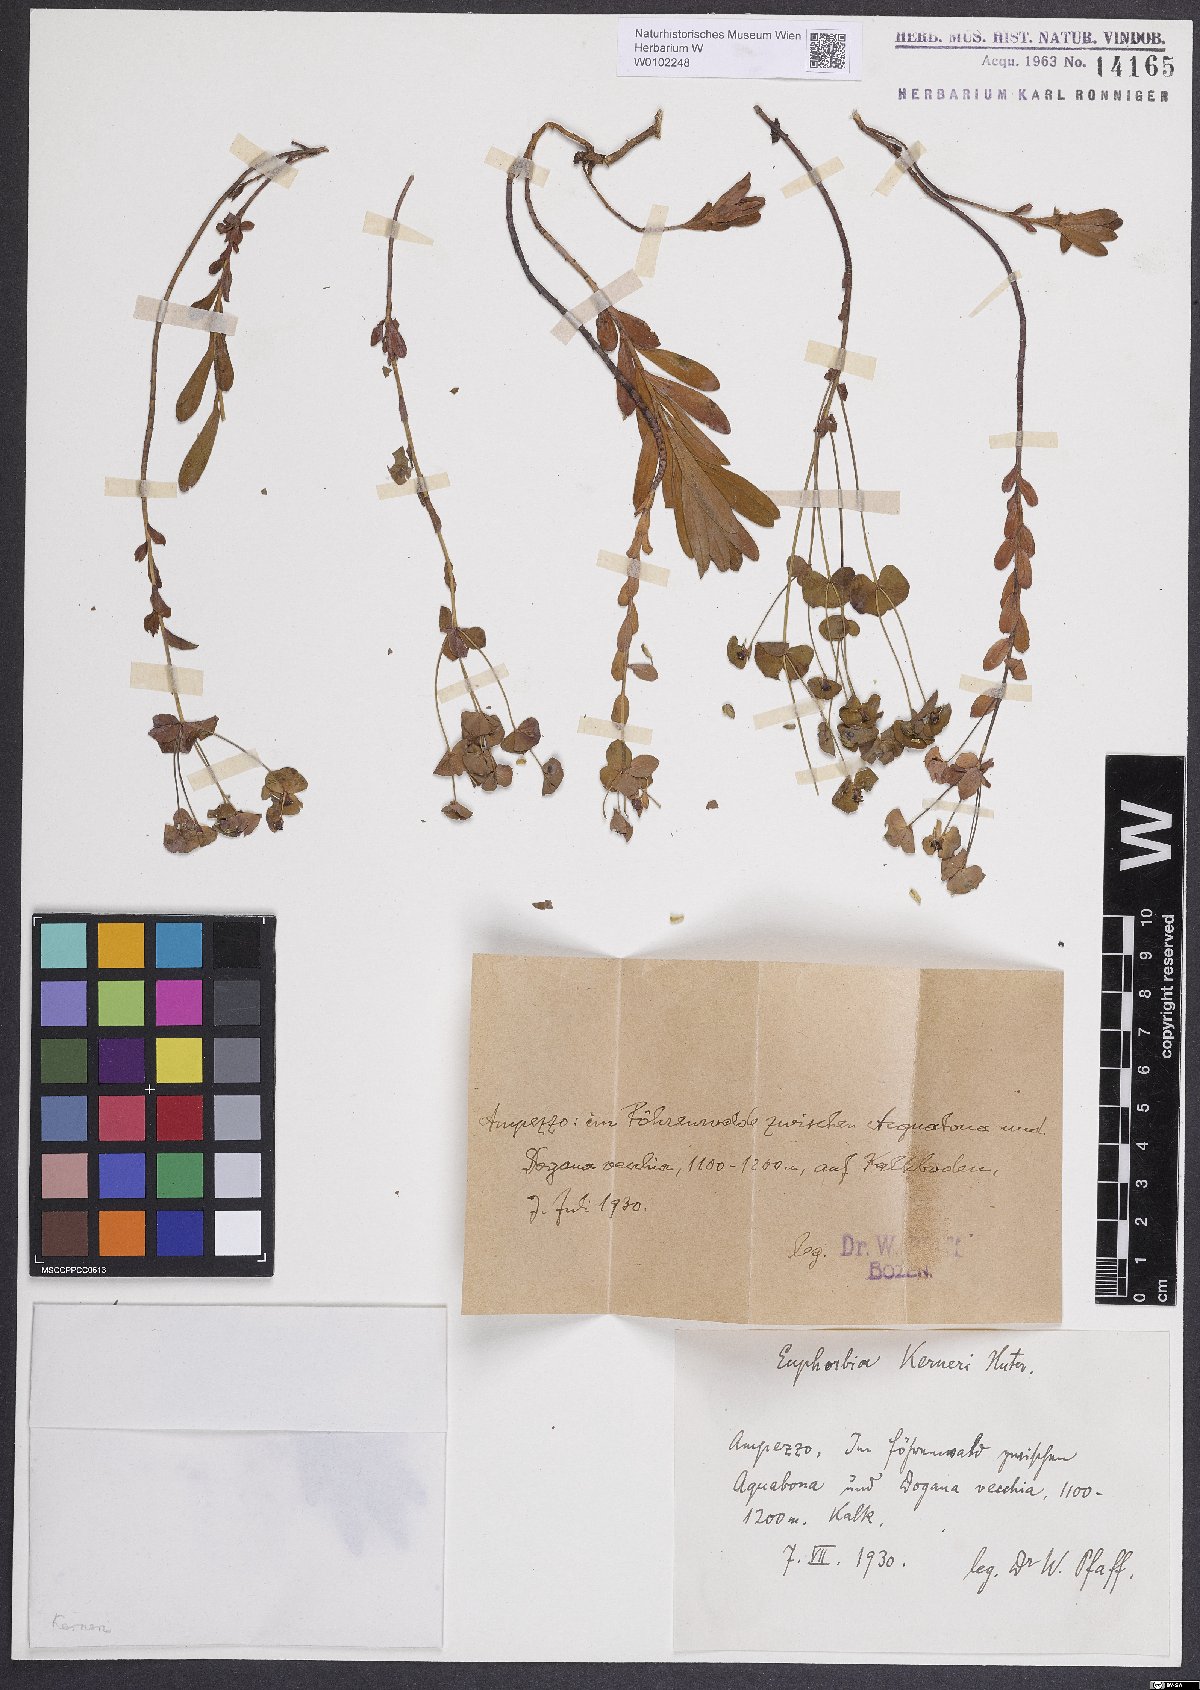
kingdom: Plantae
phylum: Tracheophyta
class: Magnoliopsida
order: Malpighiales
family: Euphorbiaceae
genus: Euphorbia
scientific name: Euphorbia kerneri
